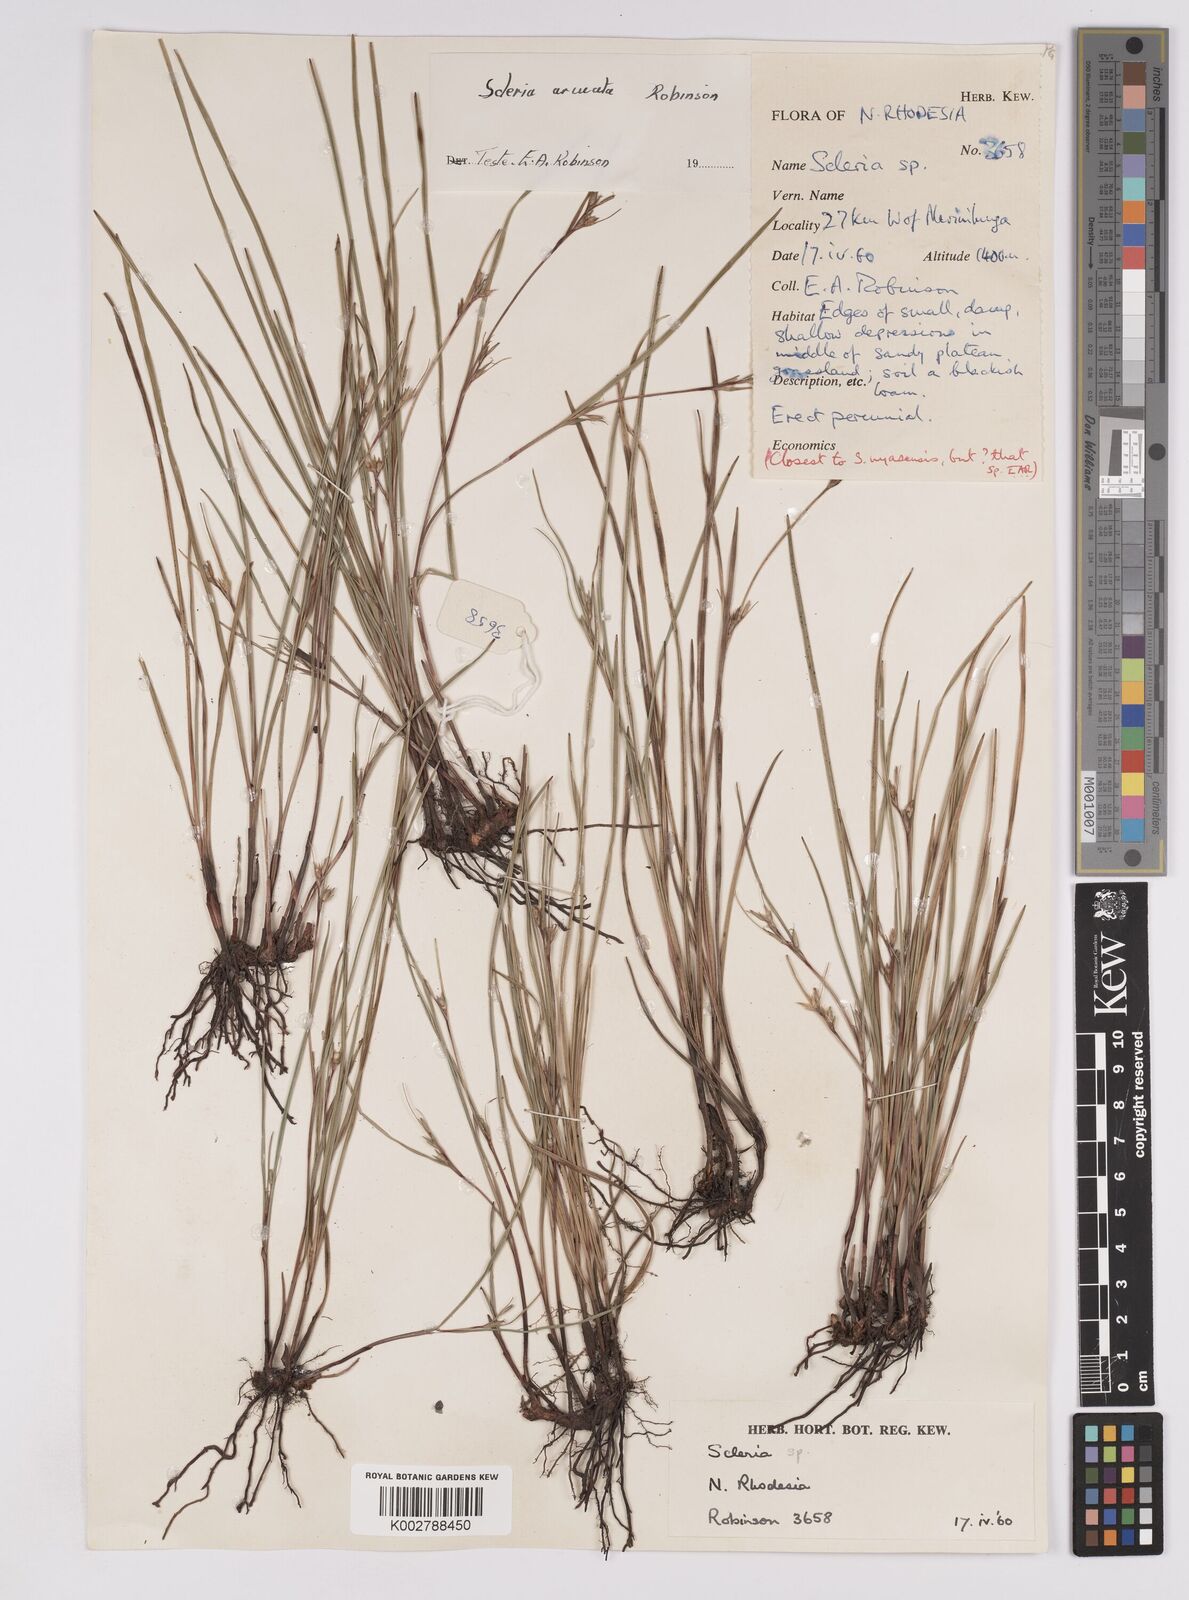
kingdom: Plantae
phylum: Tracheophyta
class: Liliopsida
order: Poales
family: Cyperaceae
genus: Scleria
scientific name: Scleria arcuata
